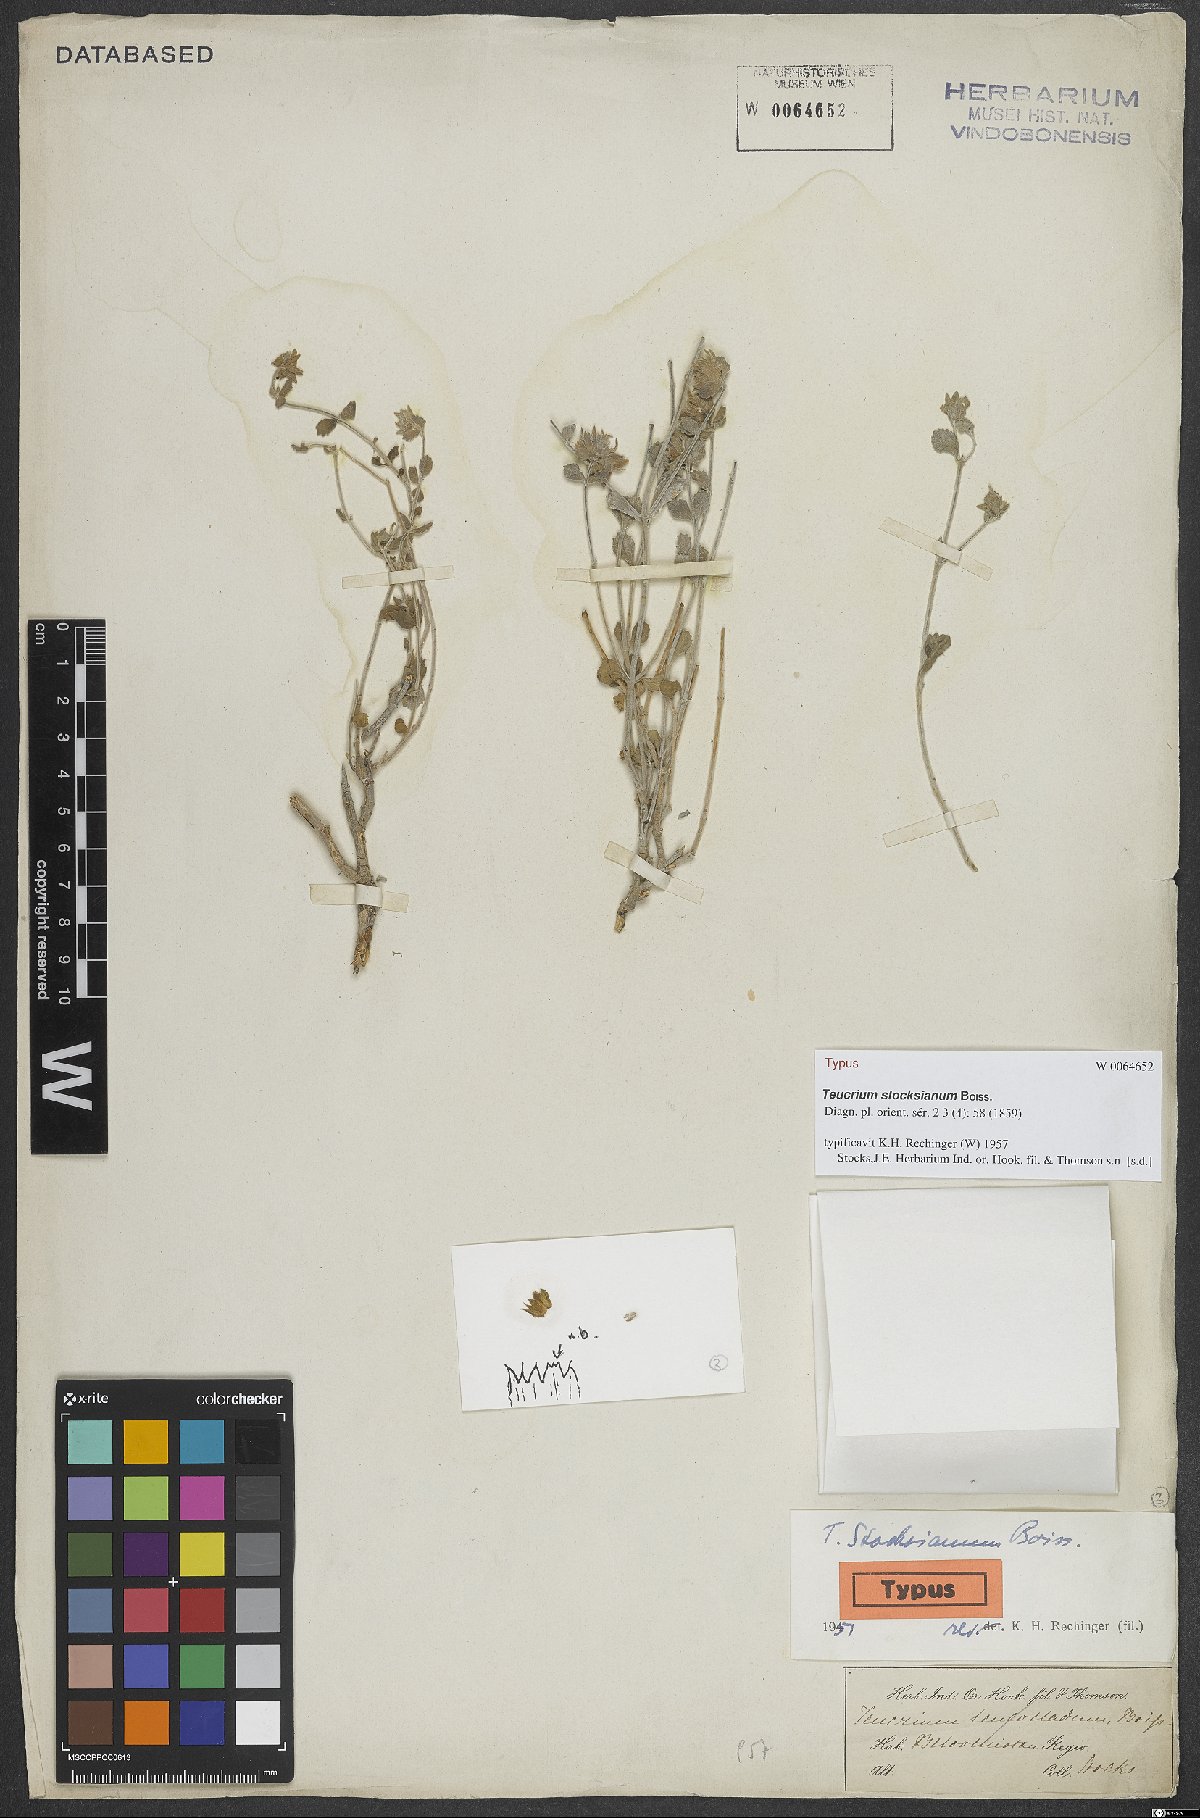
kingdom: Plantae
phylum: Tracheophyta
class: Magnoliopsida
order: Lamiales
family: Lamiaceae
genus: Teucrium
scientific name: Teucrium stocksianum
